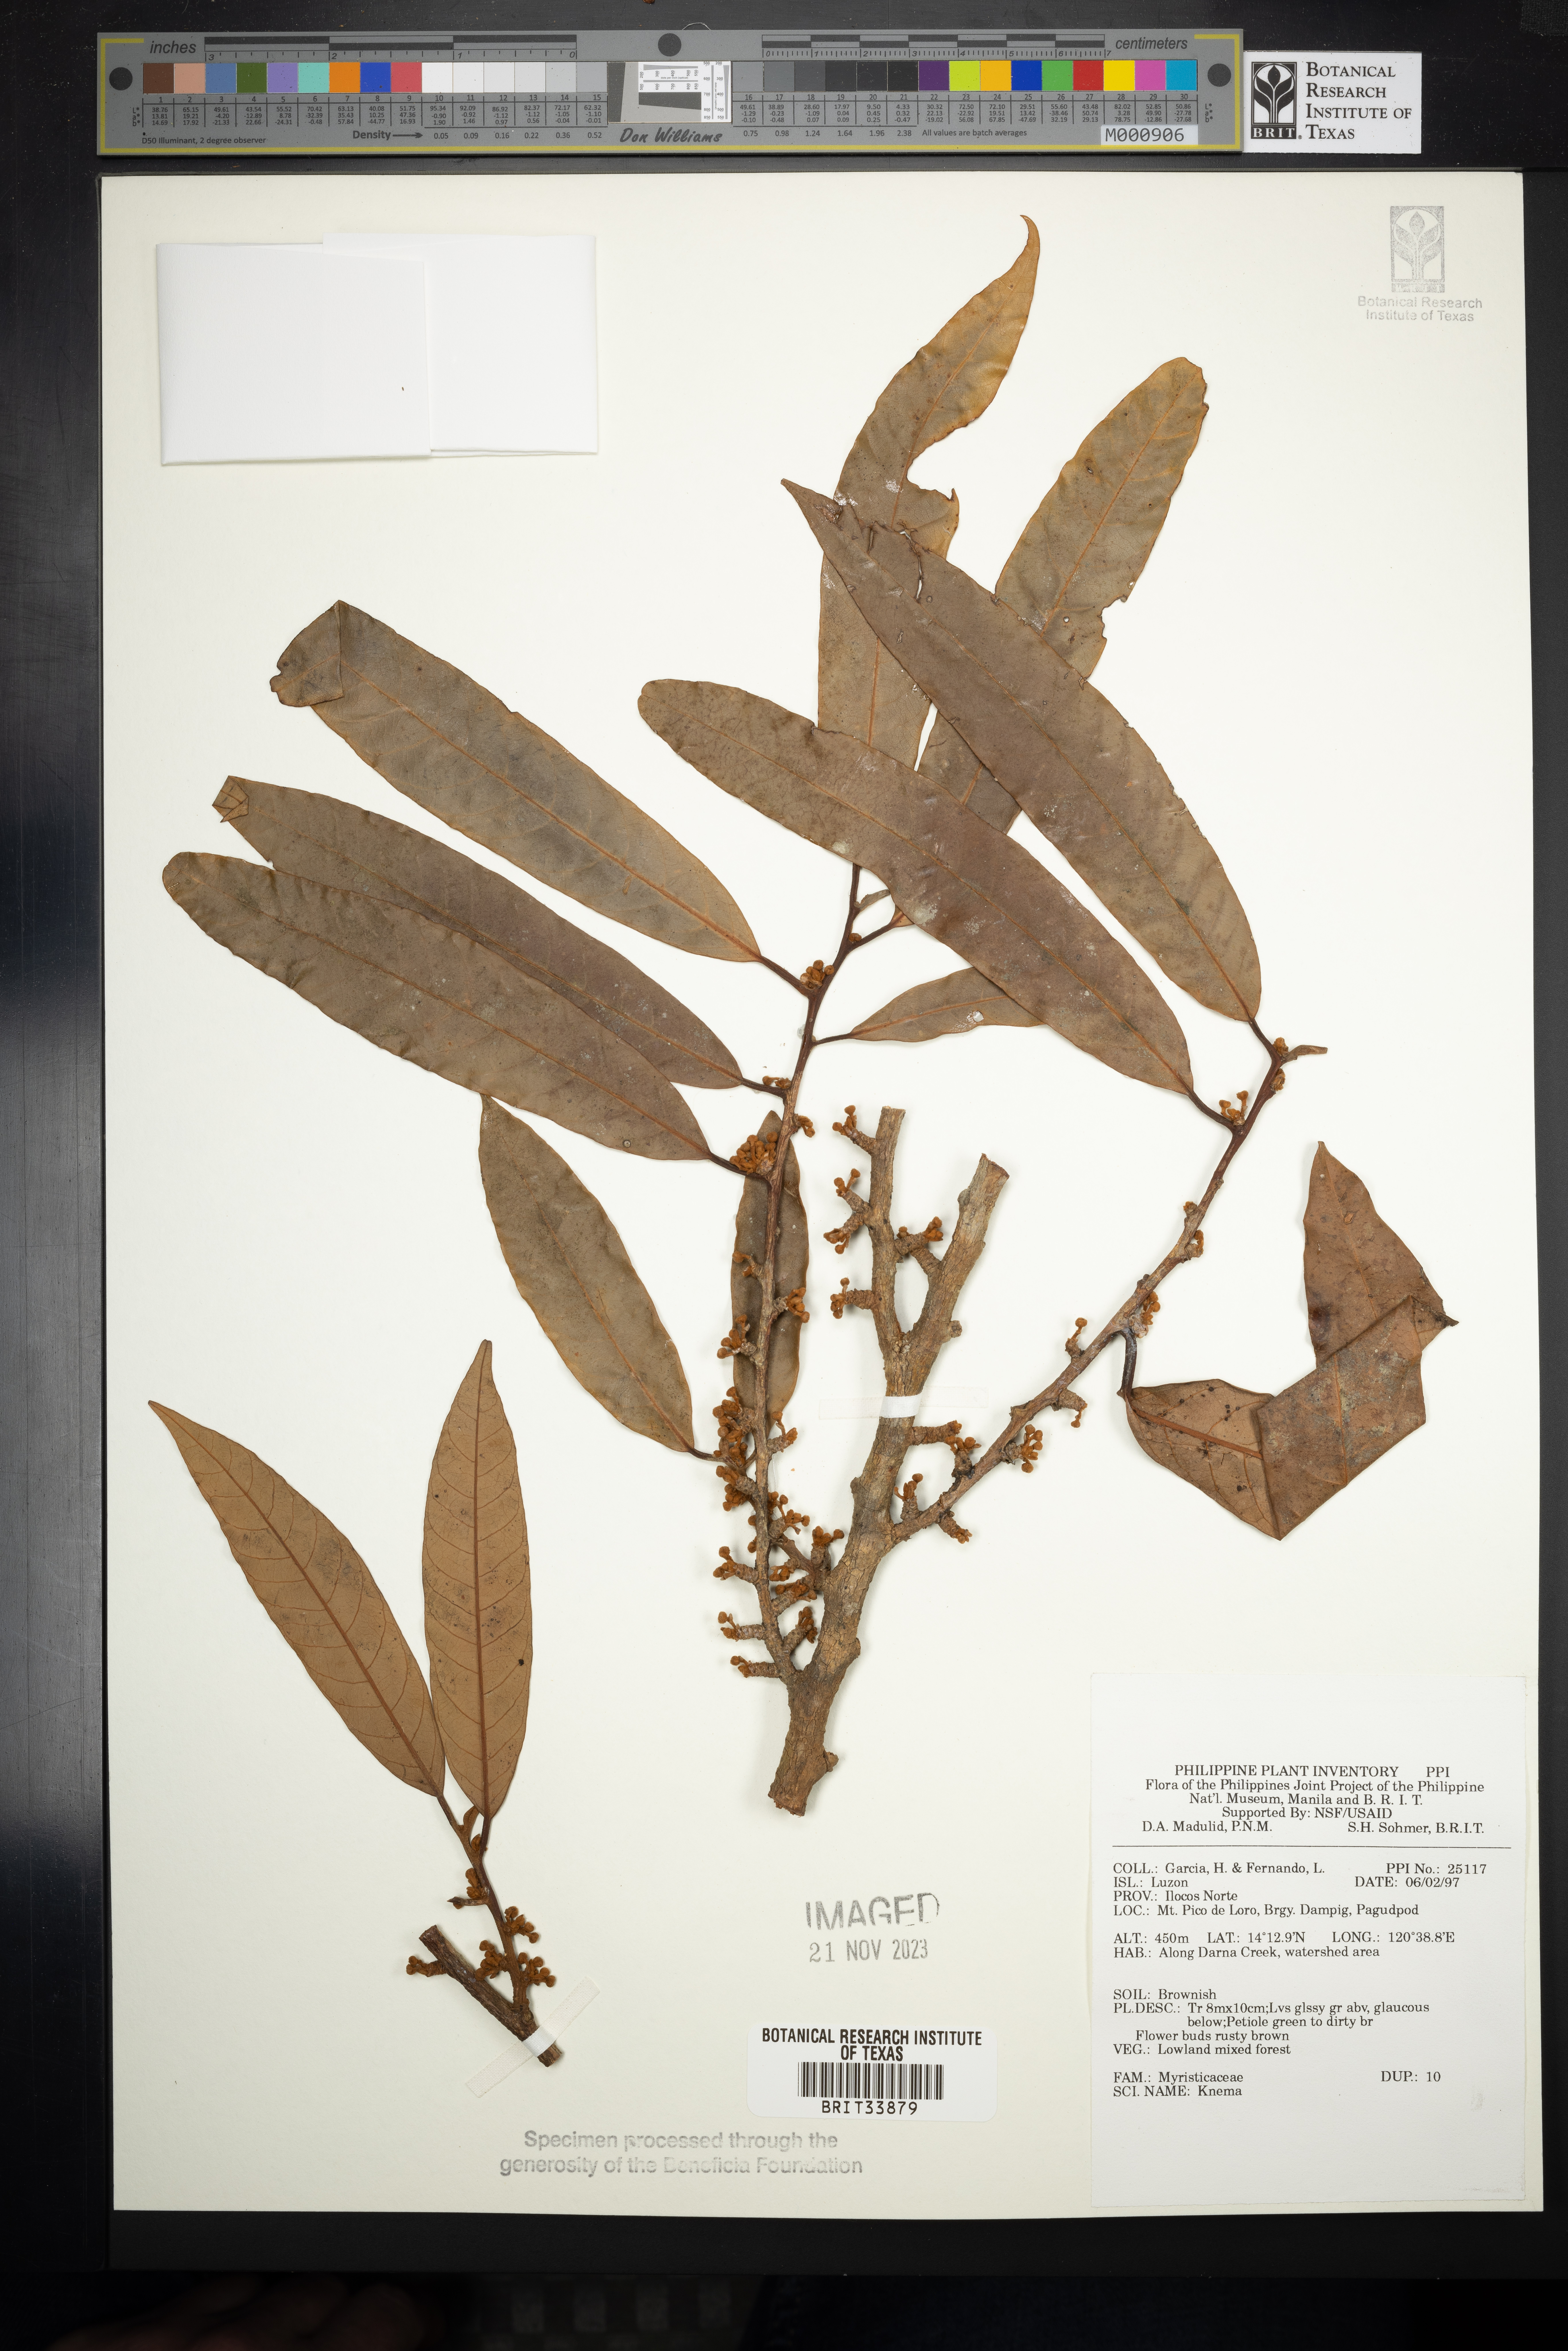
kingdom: Plantae
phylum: Tracheophyta
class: Magnoliopsida
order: Magnoliales
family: Myristicaceae
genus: Knema
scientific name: Knema
